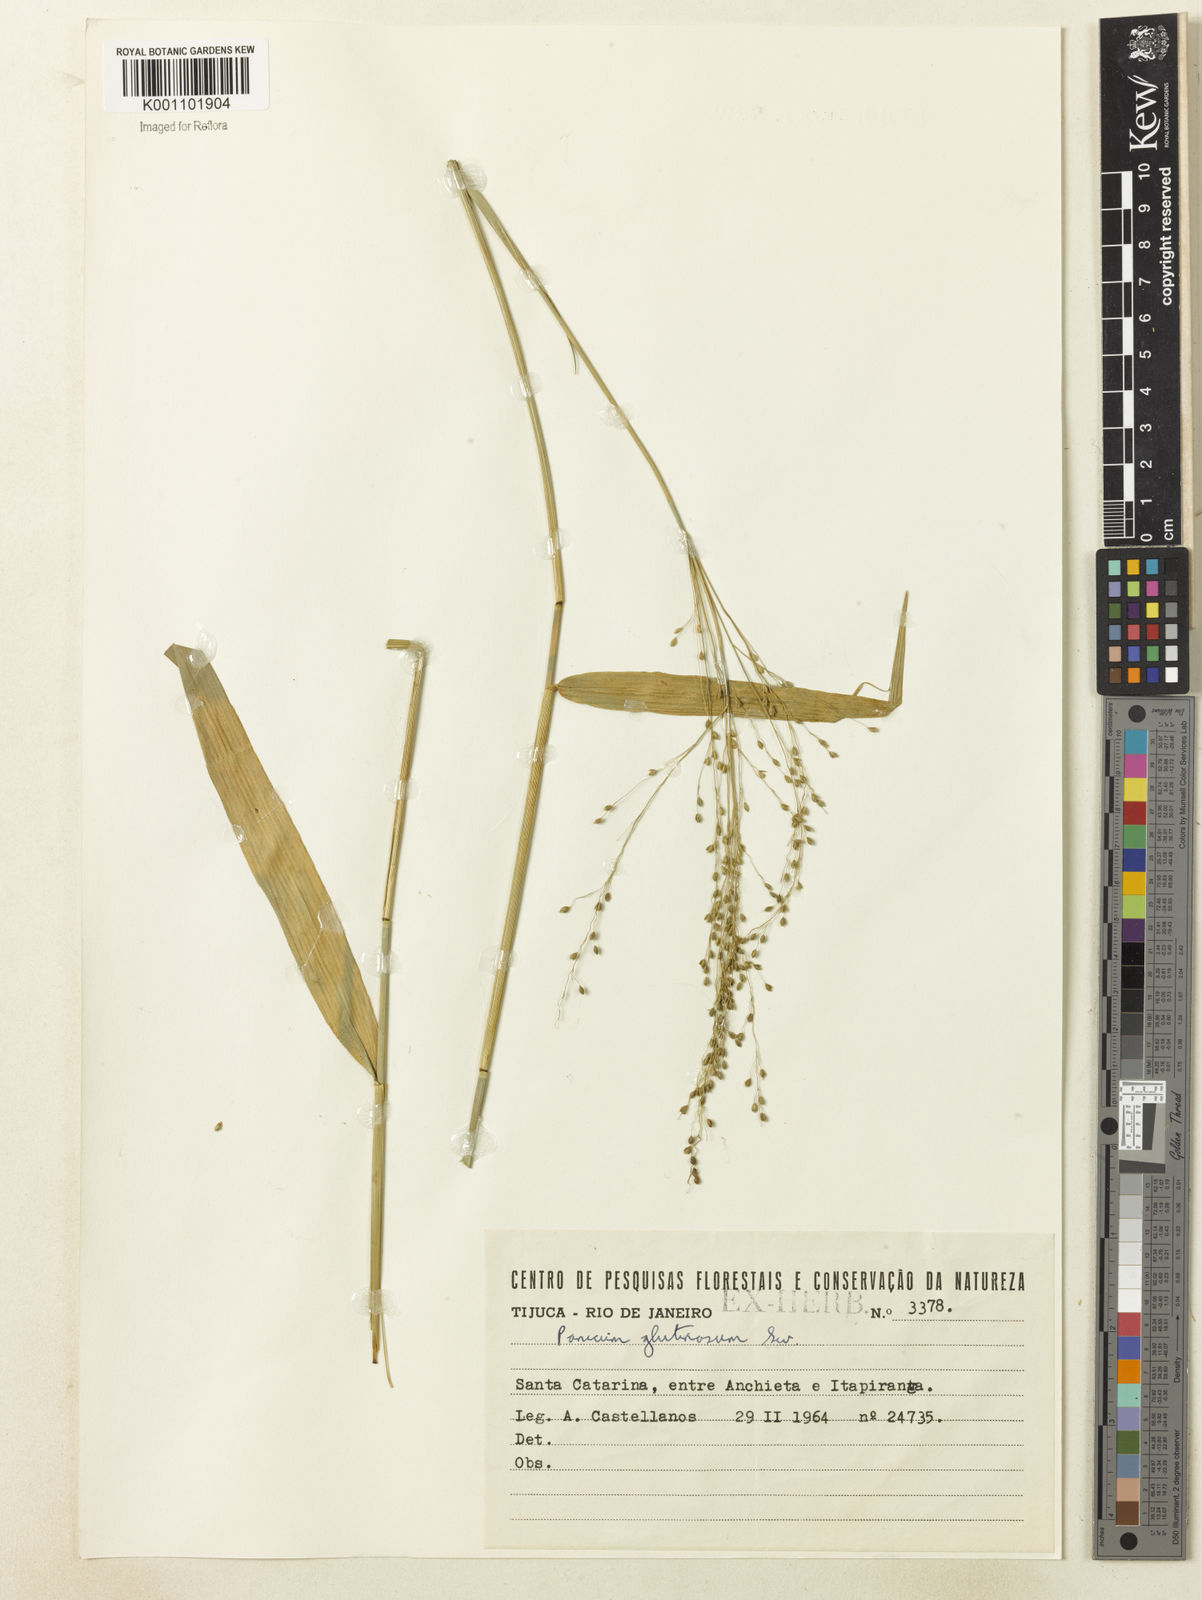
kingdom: Plantae
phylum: Tracheophyta
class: Liliopsida
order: Poales
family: Poaceae
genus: Homolepis
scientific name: Homolepis glutinosa
